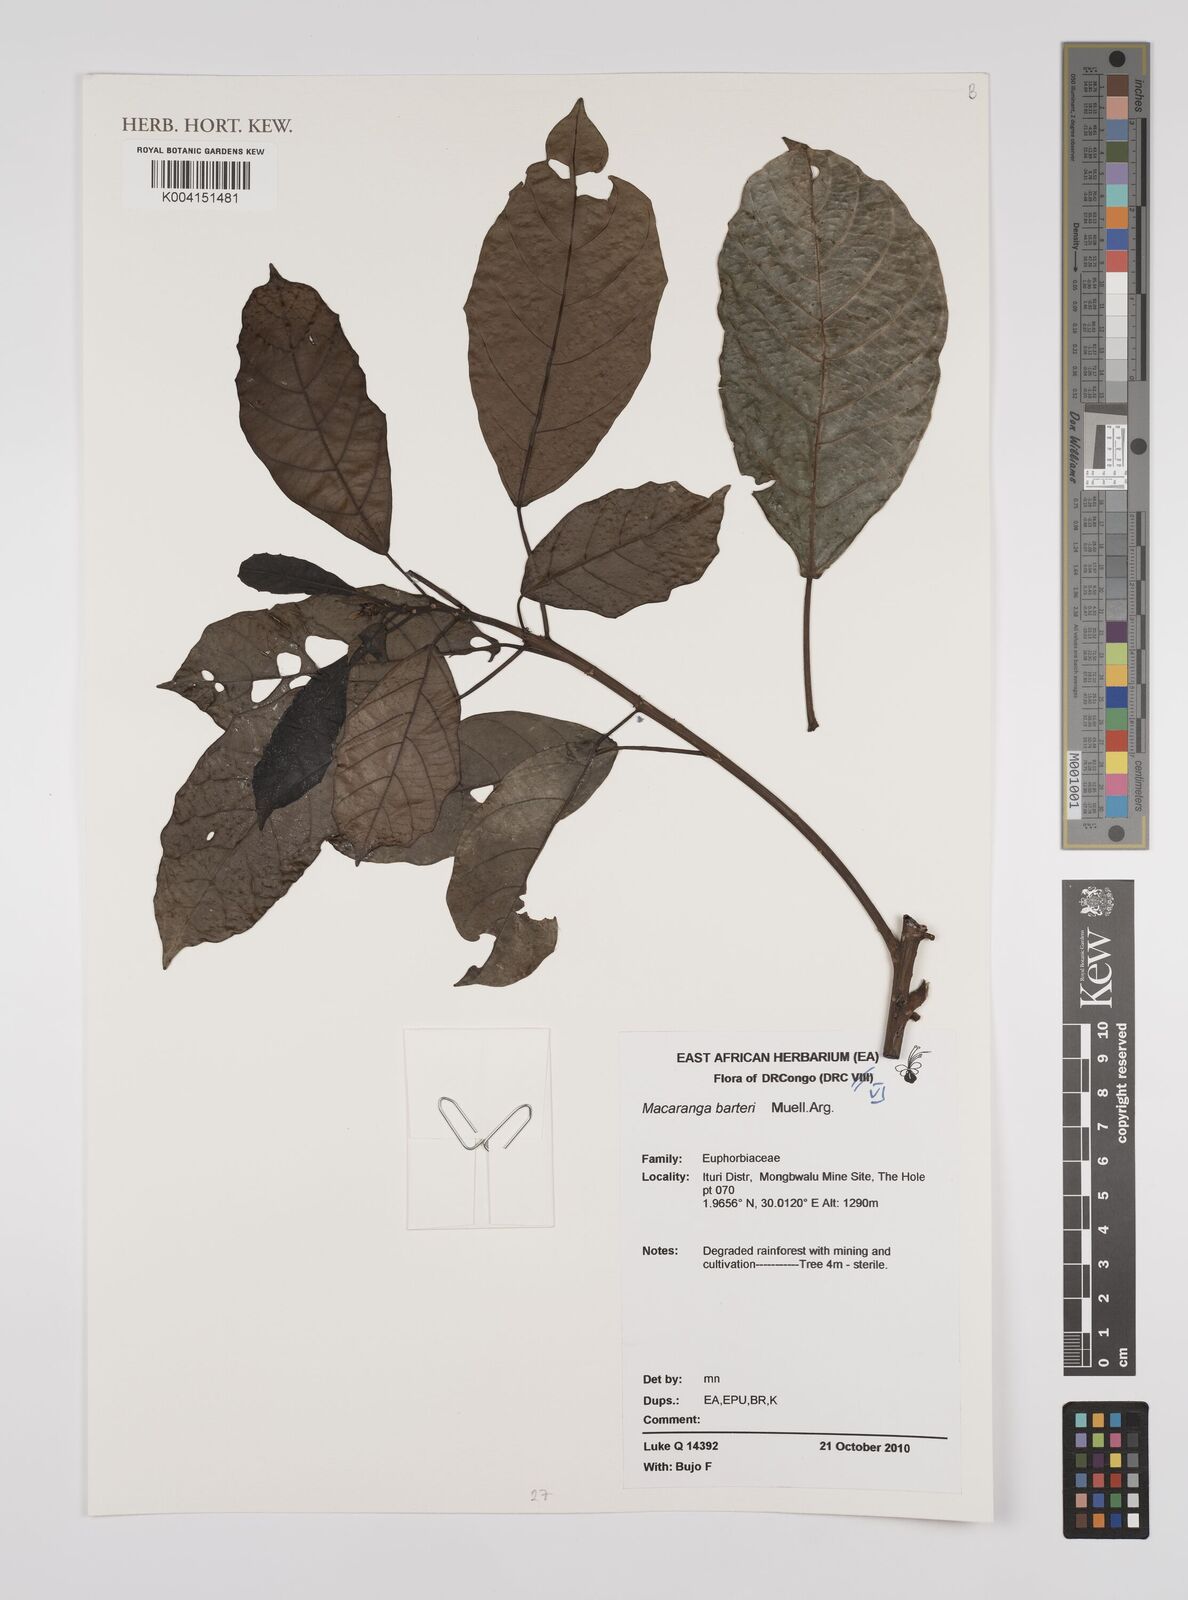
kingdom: Plantae
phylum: Tracheophyta
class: Magnoliopsida
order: Malpighiales
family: Euphorbiaceae
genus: Macaranga
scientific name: Macaranga barteri
